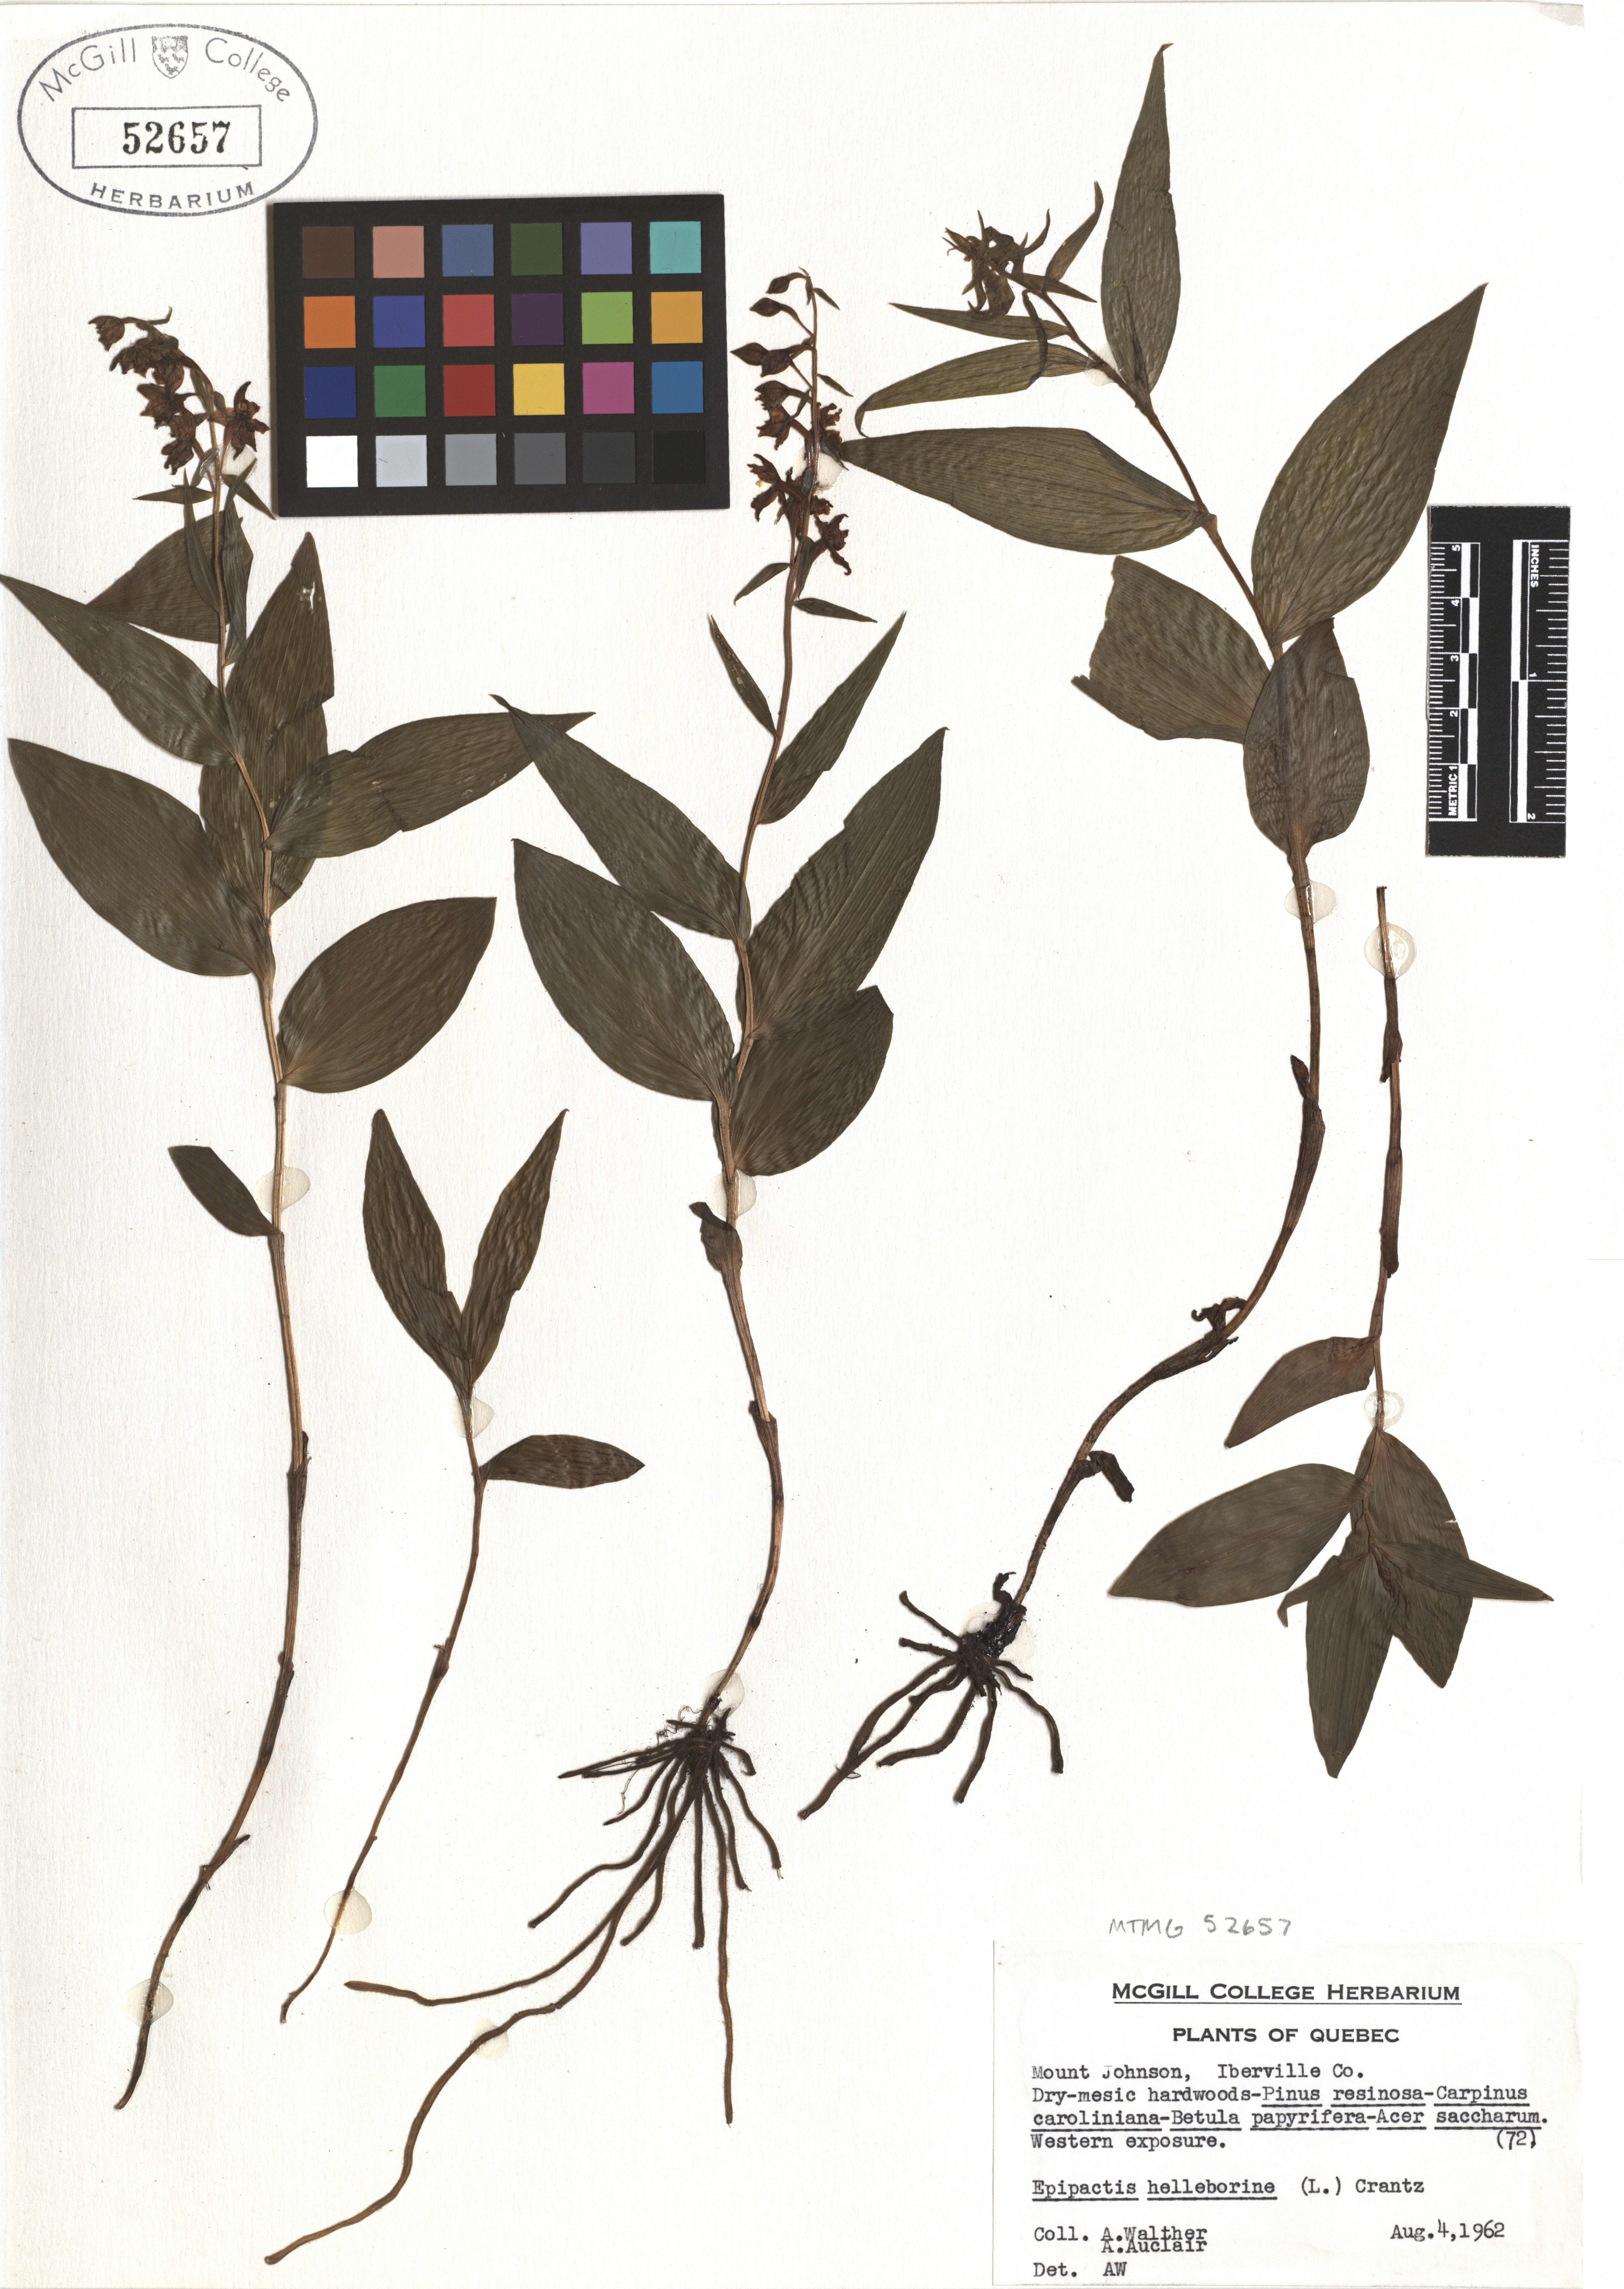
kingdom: Plantae
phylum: Tracheophyta
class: Liliopsida
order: Asparagales
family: Orchidaceae
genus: Epipactis
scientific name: Epipactis helleborine
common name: Broad-leaved helleborine
